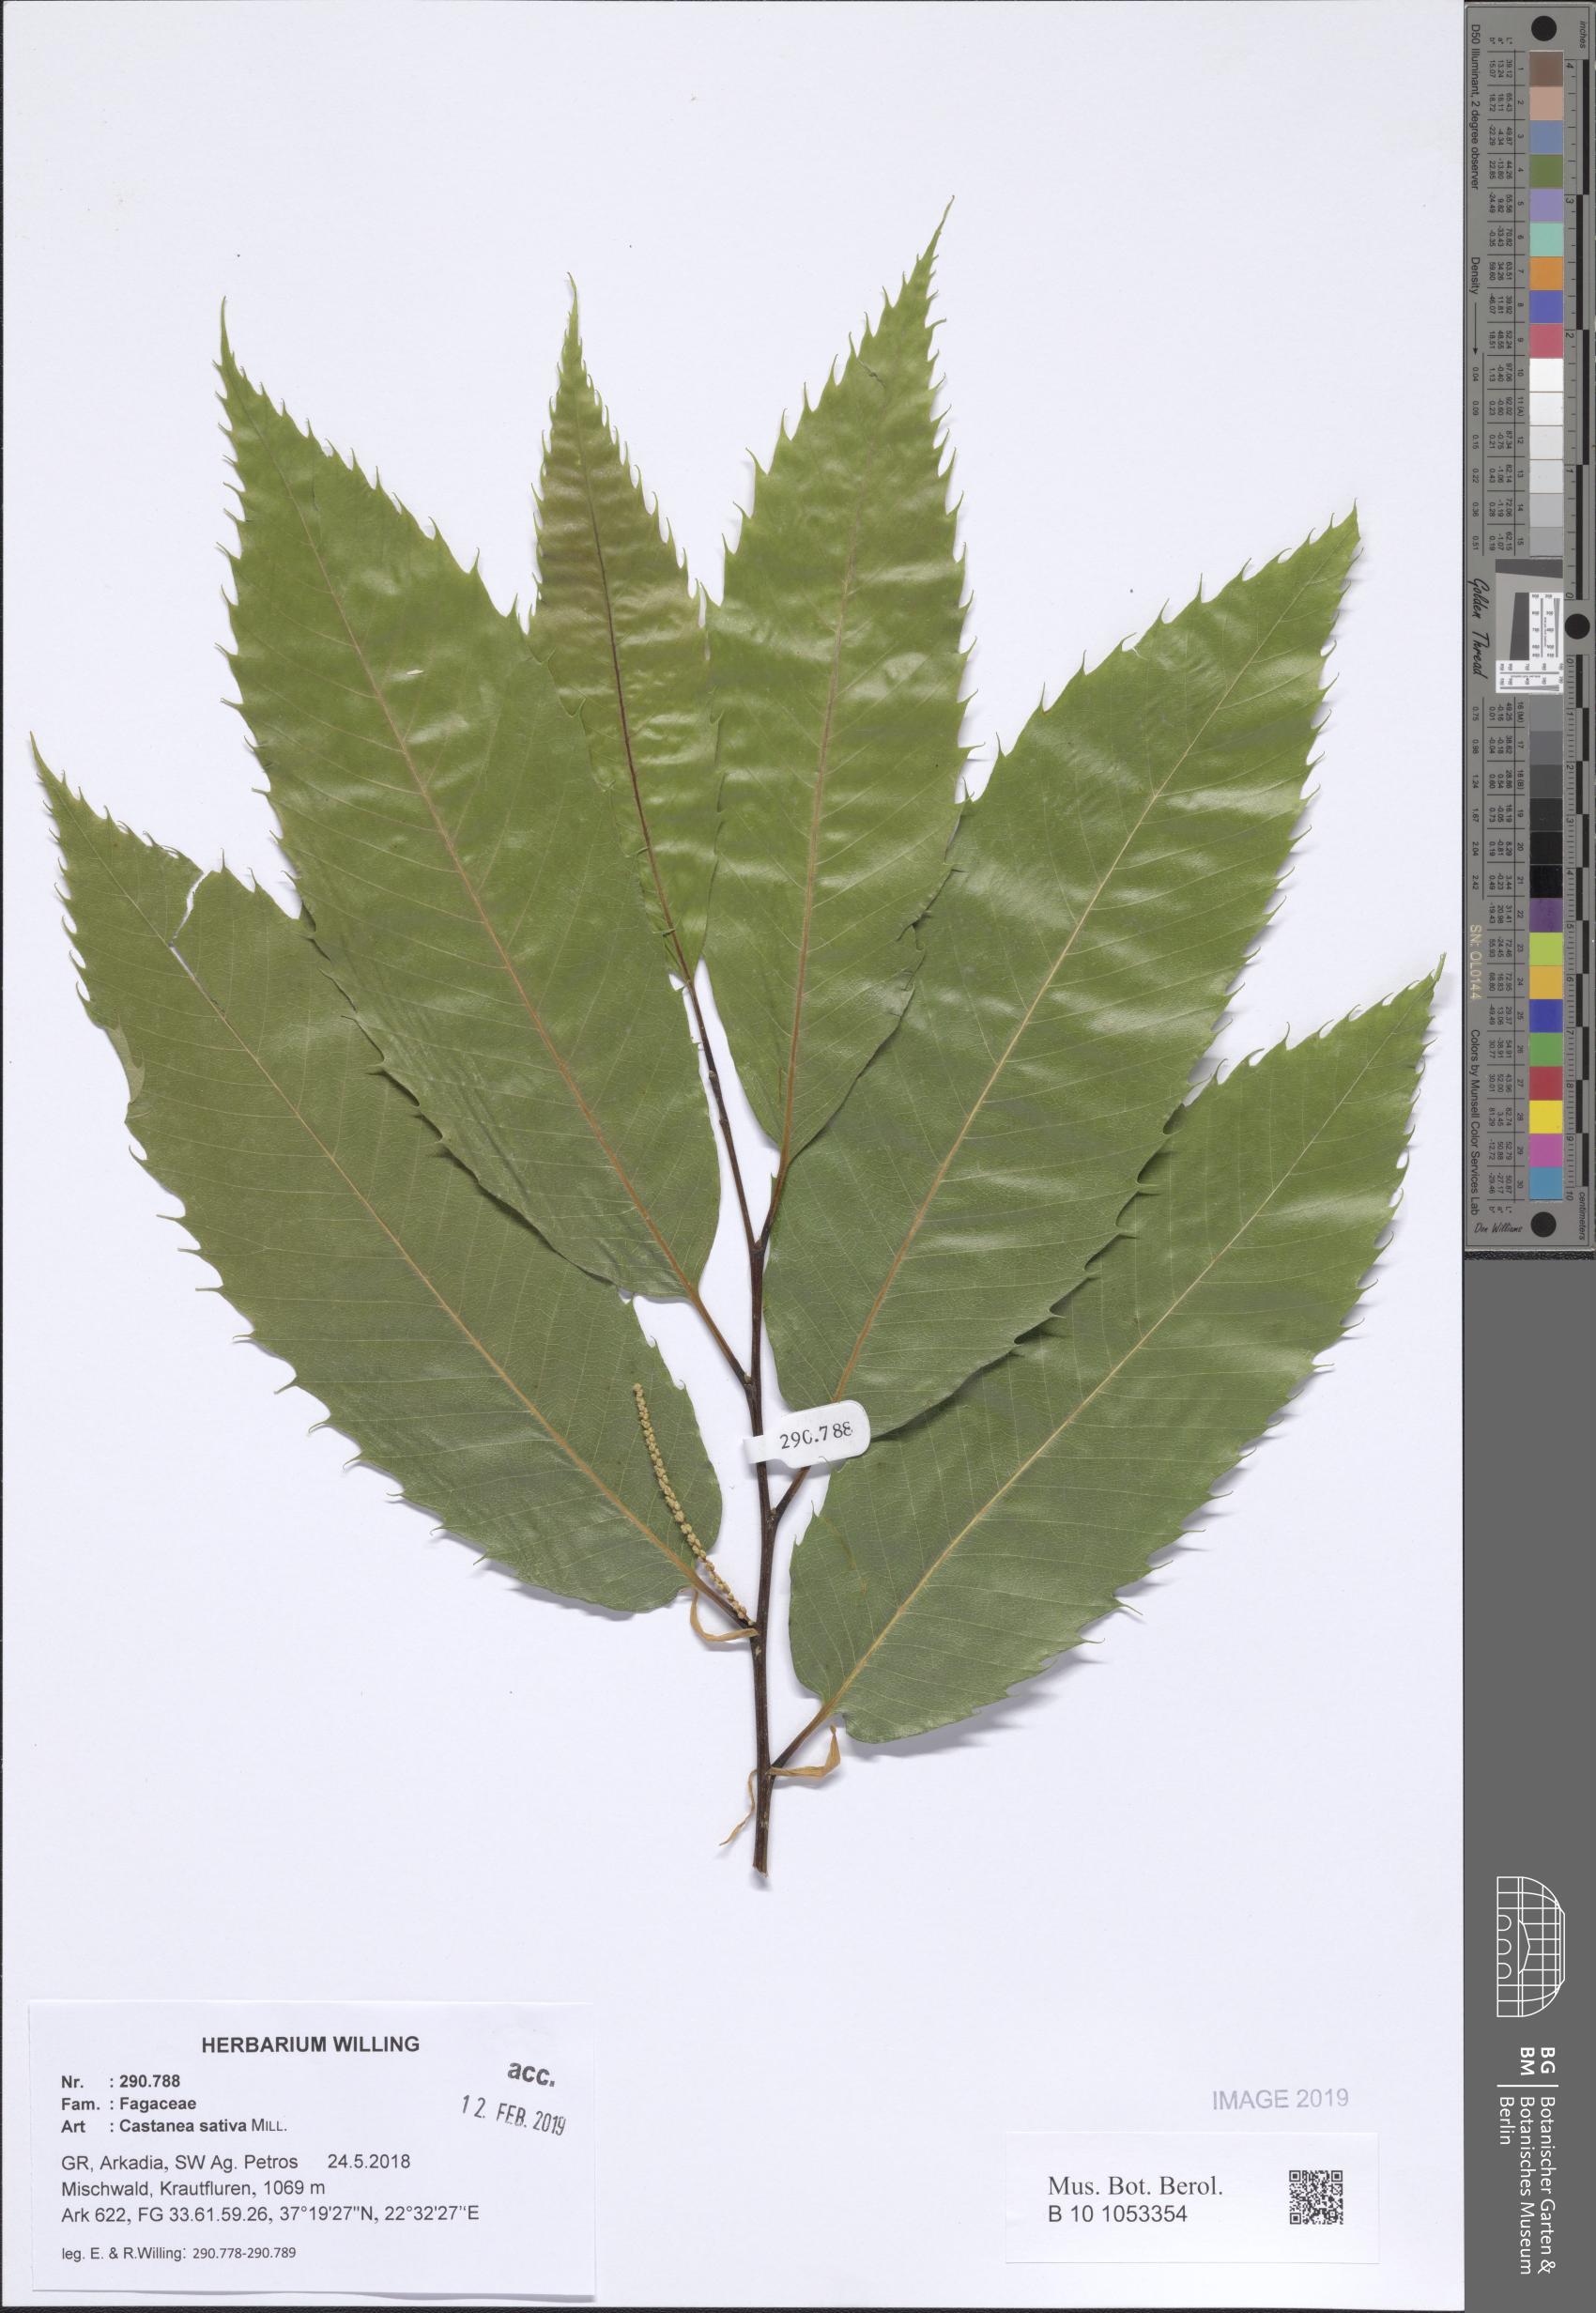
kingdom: Plantae
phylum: Tracheophyta
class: Magnoliopsida
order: Fagales
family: Fagaceae
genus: Castanea
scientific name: Castanea sativa
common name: Sweet chestnut
